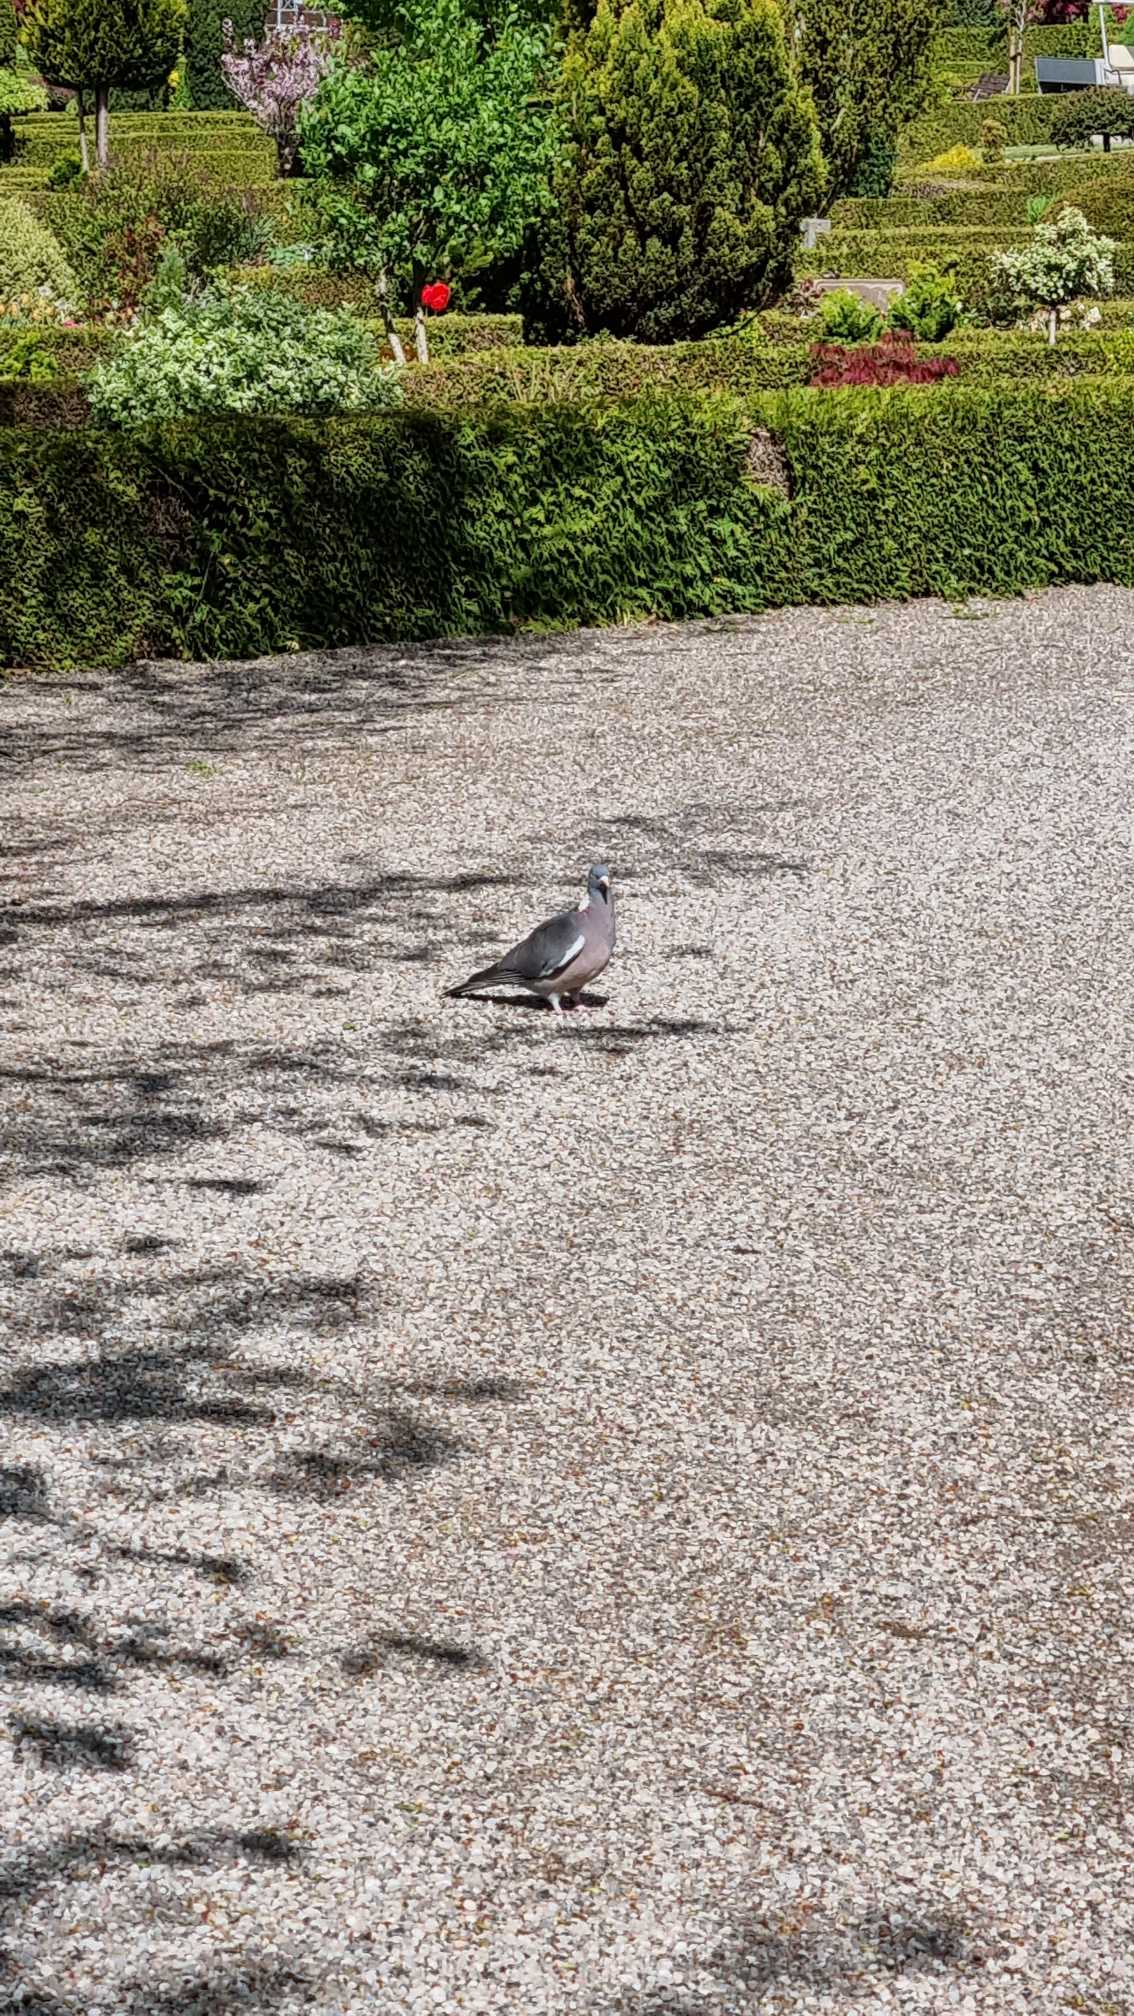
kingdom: Animalia
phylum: Chordata
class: Aves
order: Columbiformes
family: Columbidae
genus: Columba
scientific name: Columba palumbus
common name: Ringdue
